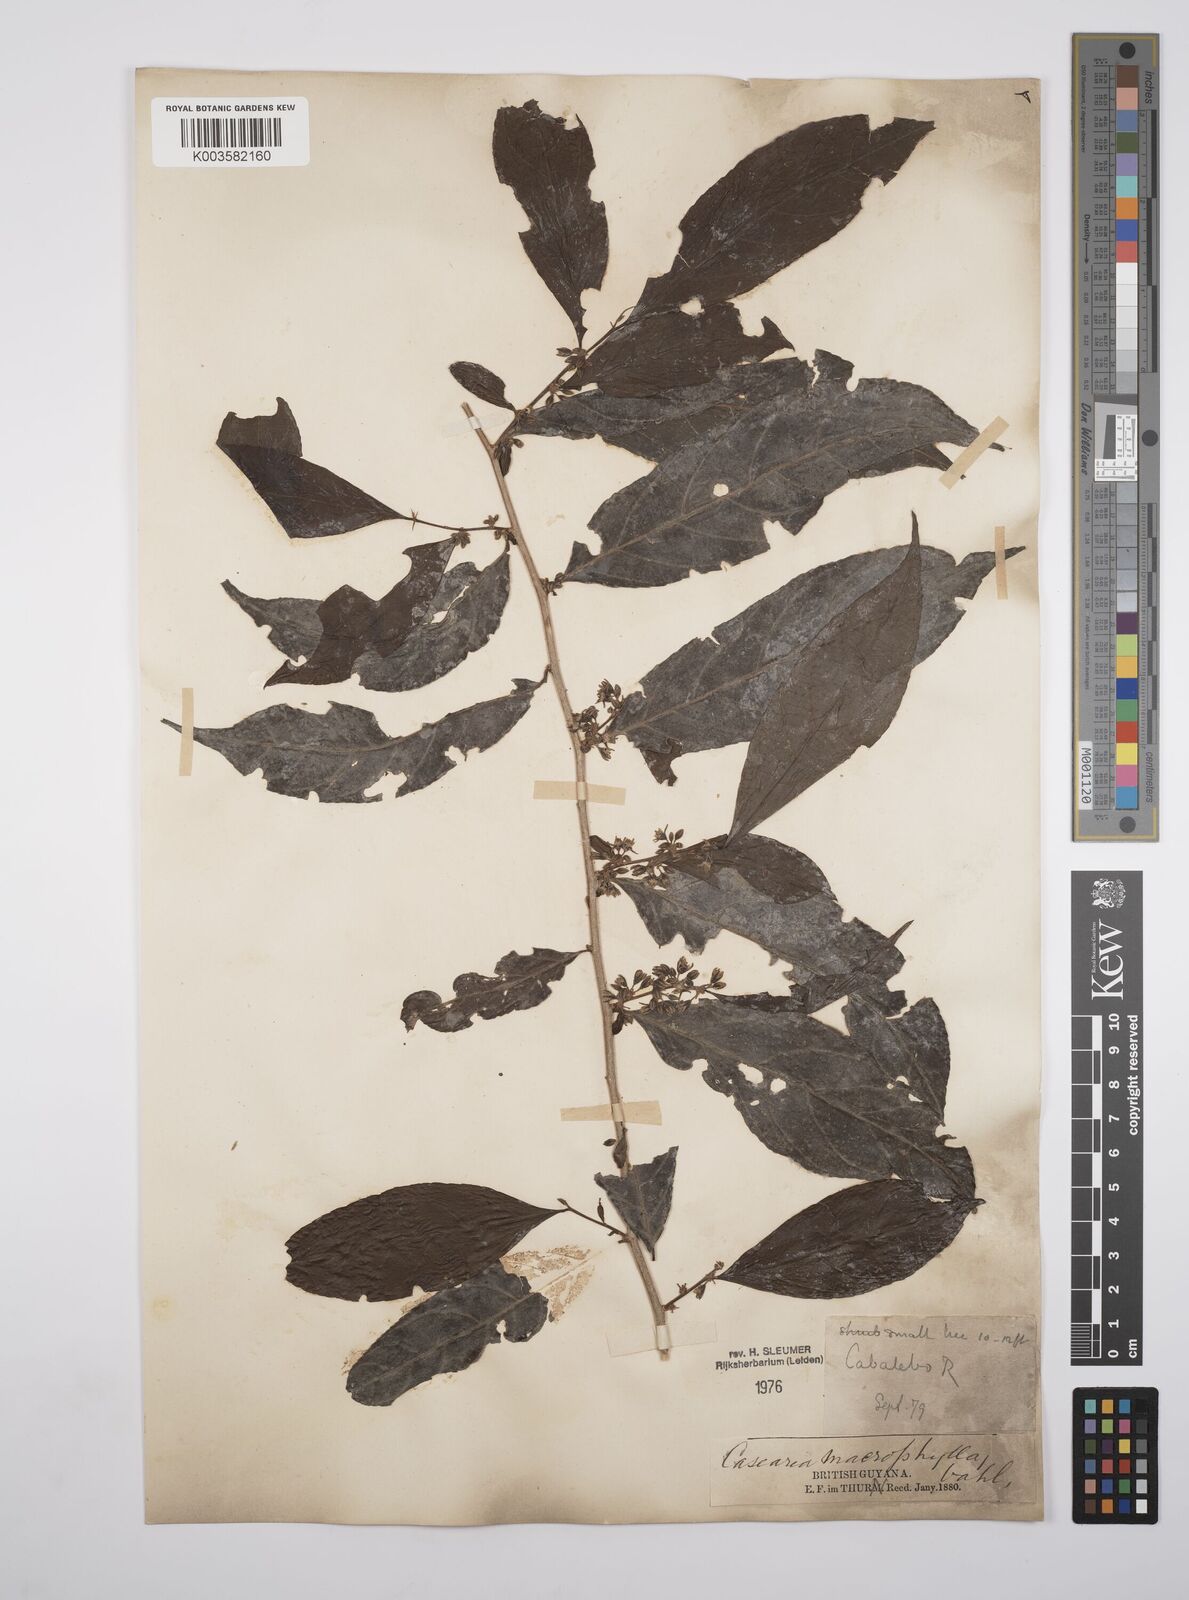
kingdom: Plantae
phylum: Tracheophyta
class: Magnoliopsida
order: Malpighiales
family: Salicaceae
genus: Casearia
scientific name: Casearia pitumba
